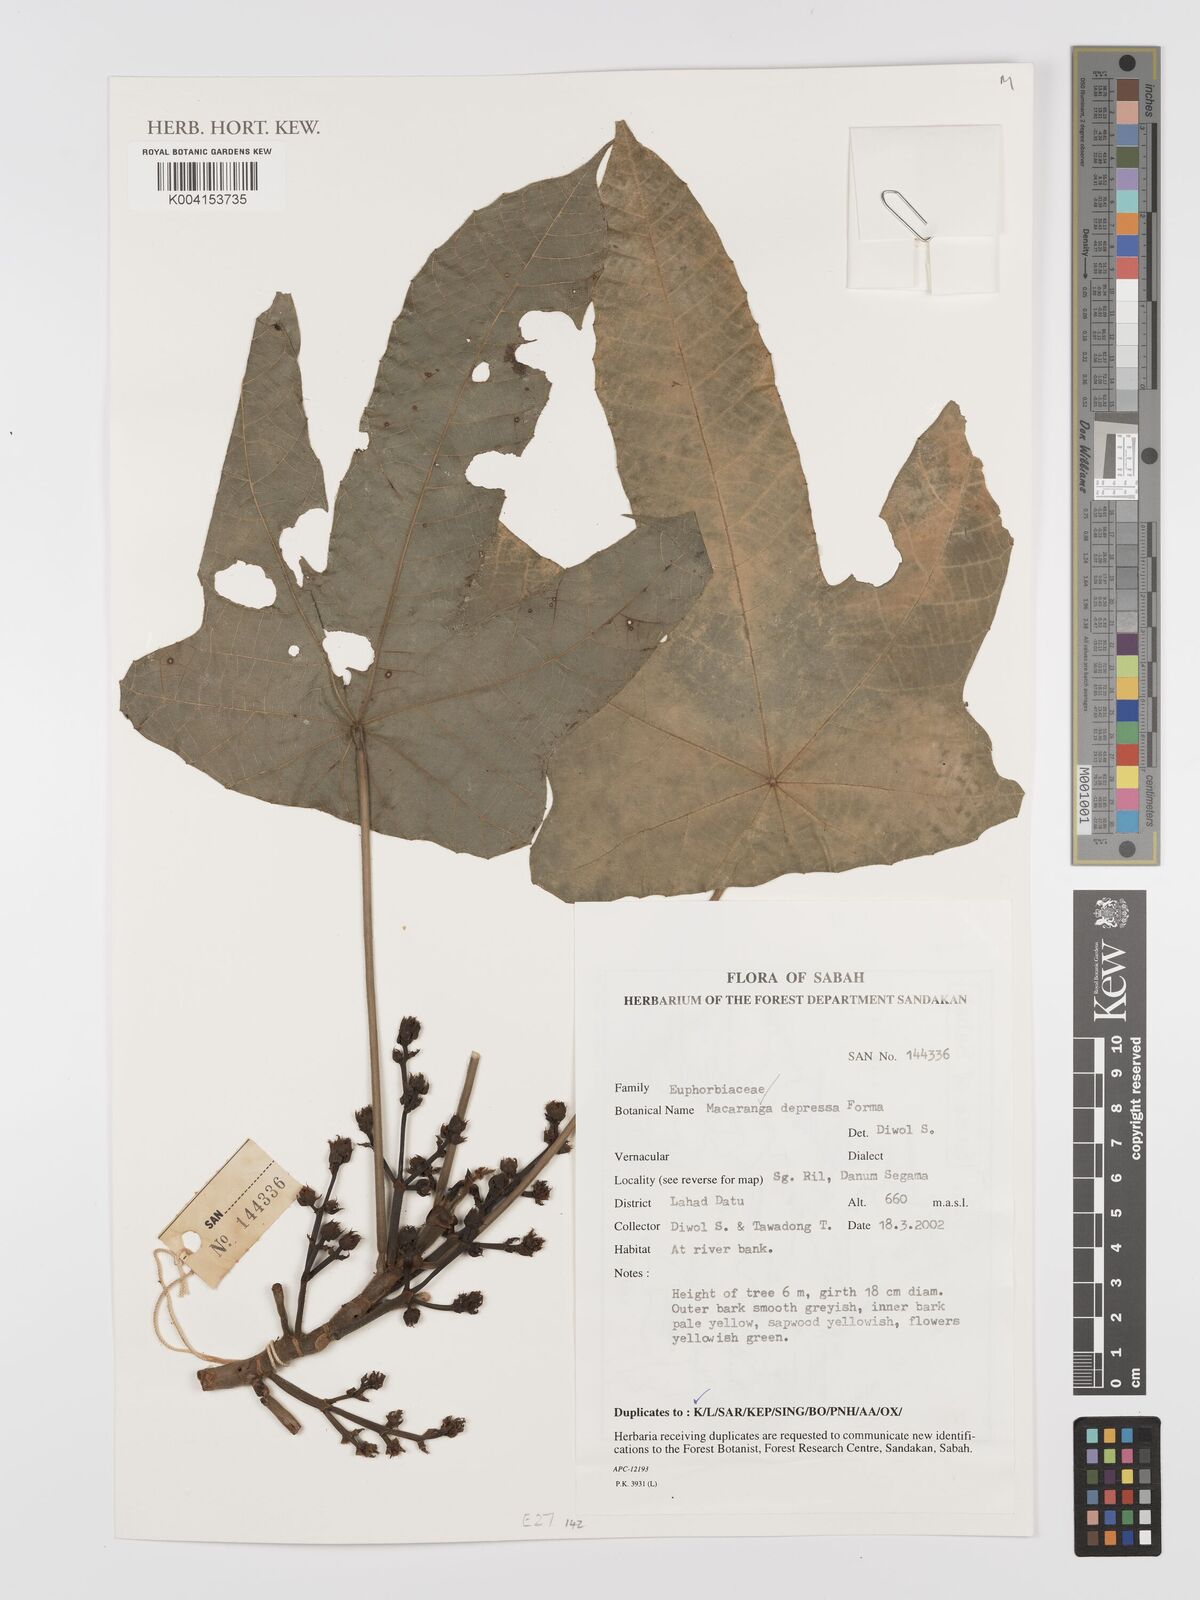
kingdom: Plantae
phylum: Tracheophyta
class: Magnoliopsida
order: Malpighiales
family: Euphorbiaceae
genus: Macaranga
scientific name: Macaranga depressa
